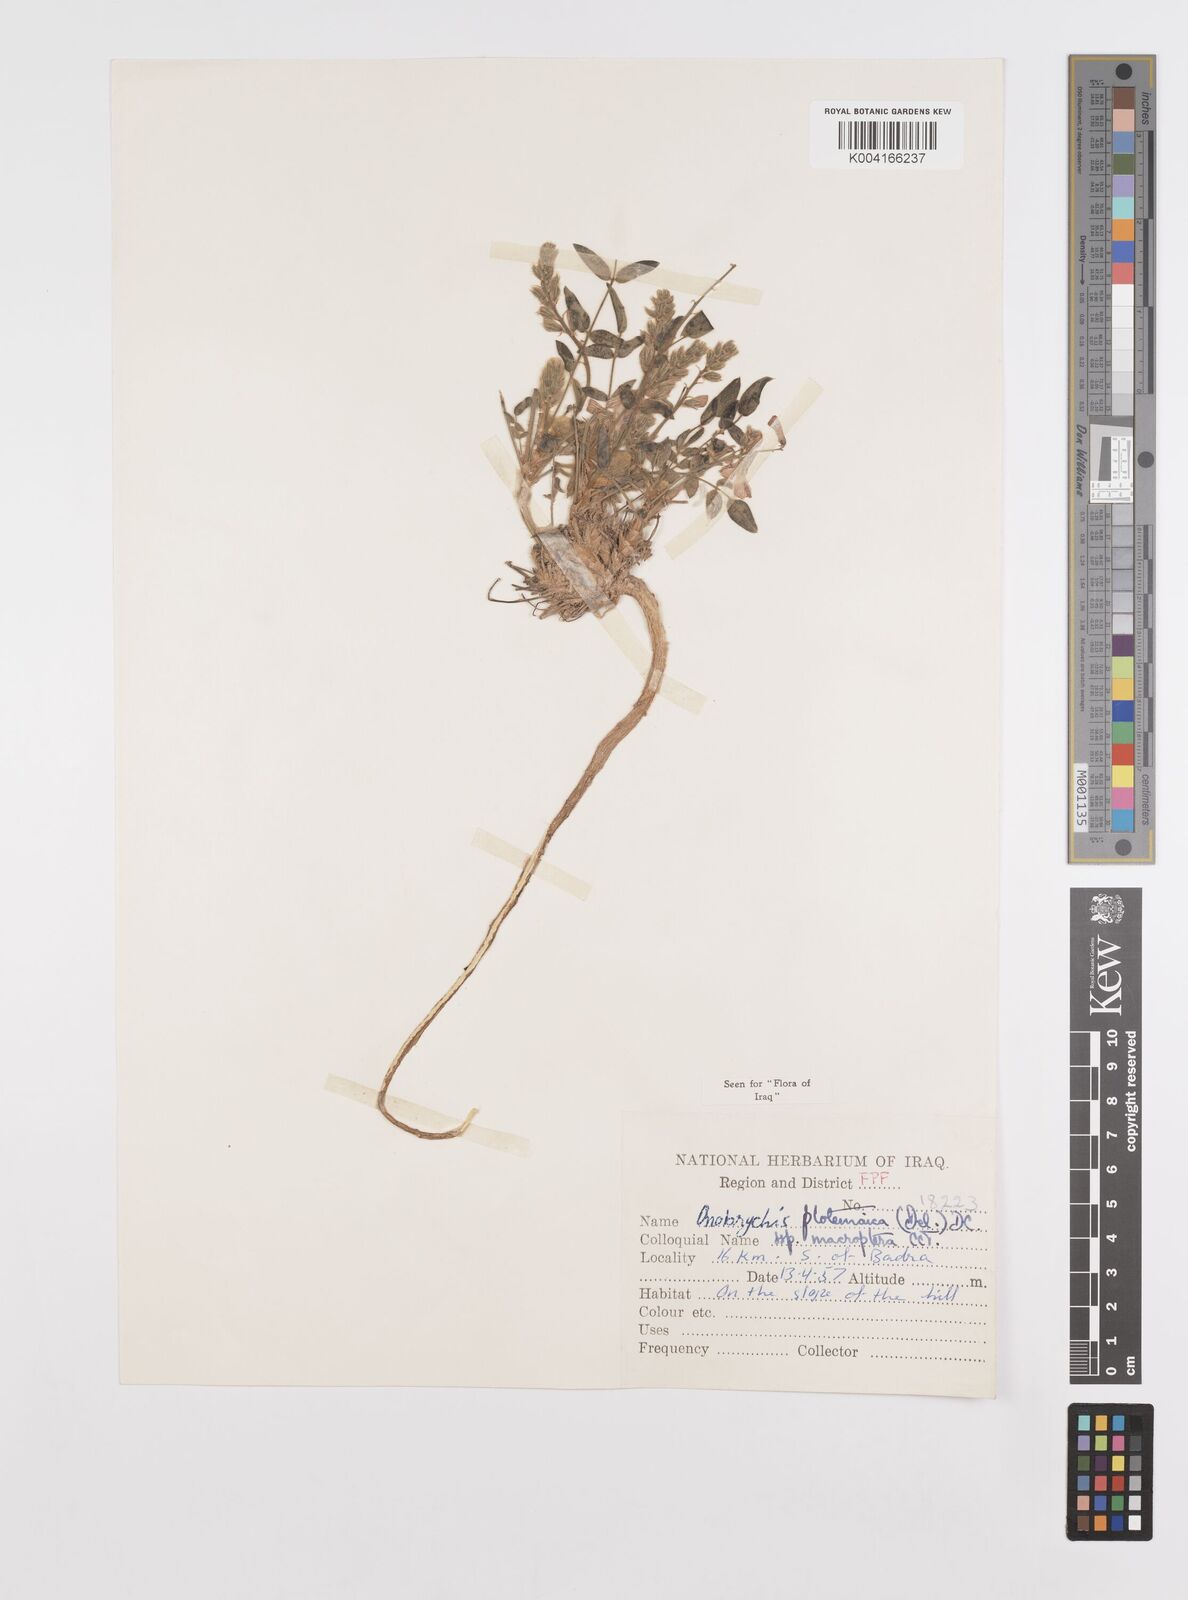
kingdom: Plantae
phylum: Tracheophyta
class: Magnoliopsida
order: Fabales
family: Fabaceae
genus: Onobrychis
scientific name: Onobrychis ptolemaica
